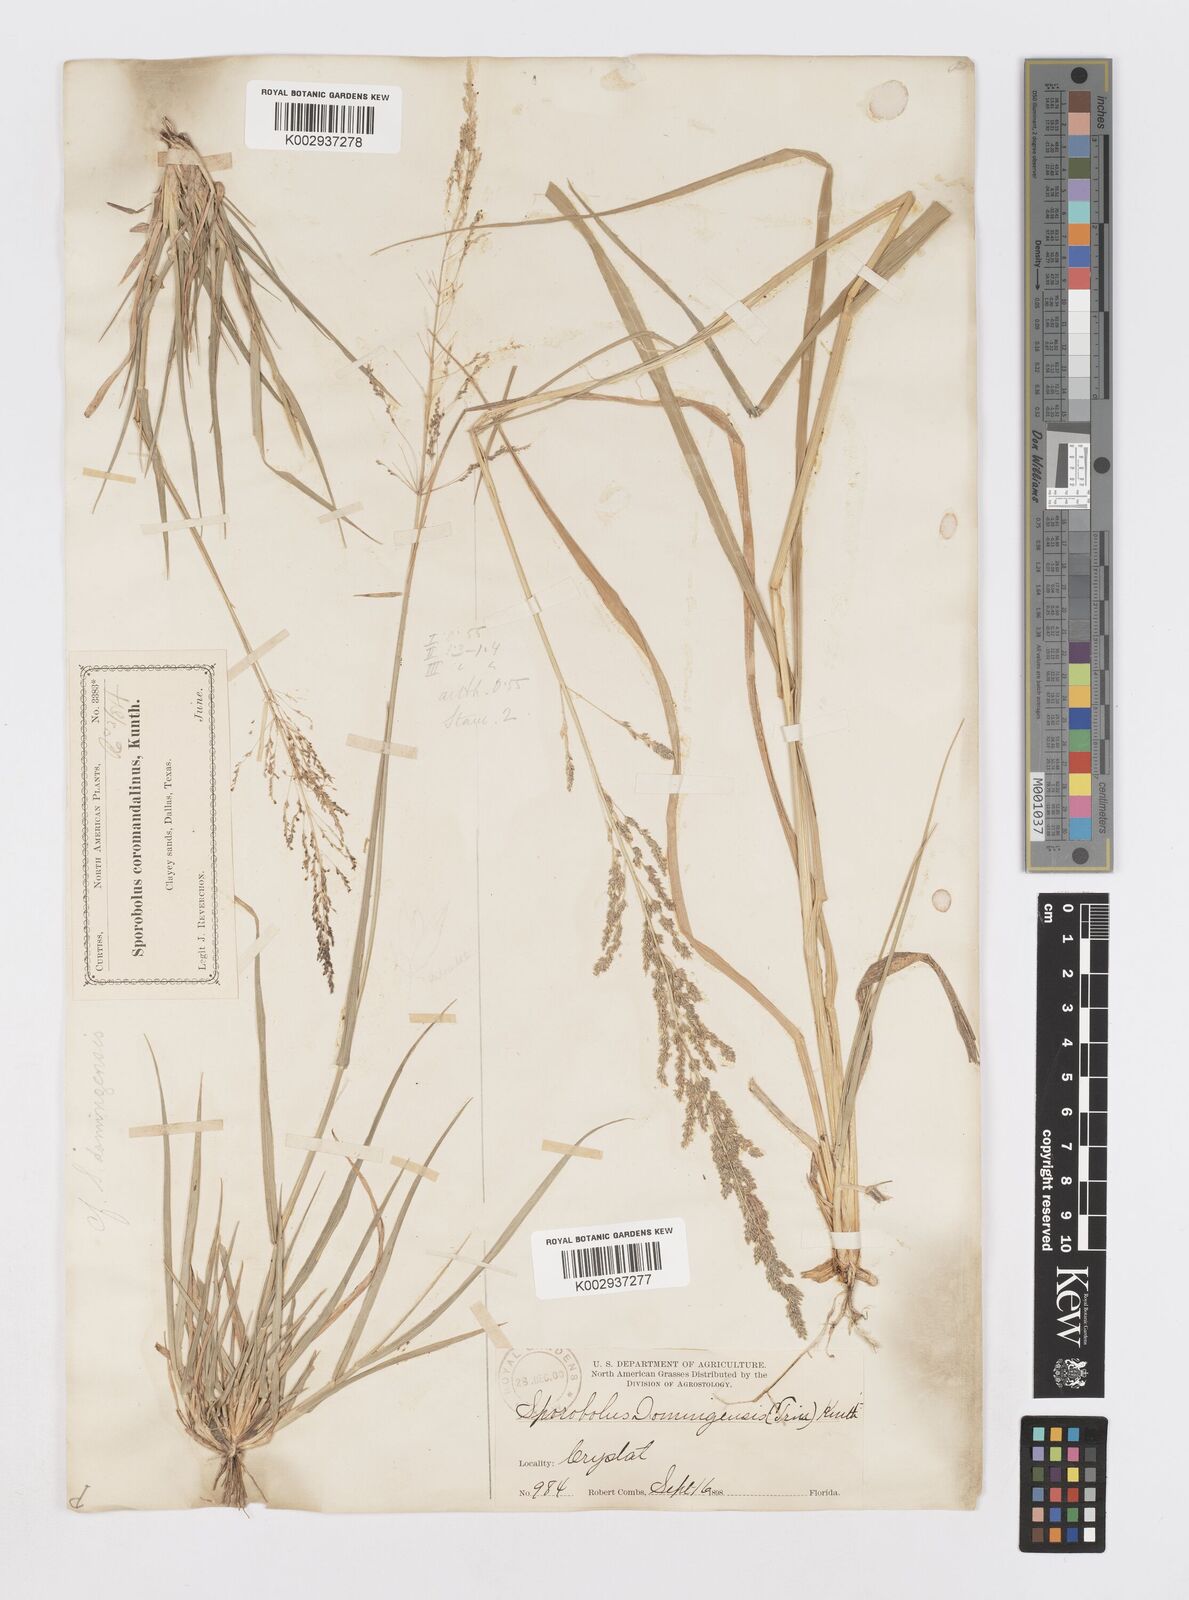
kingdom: Plantae
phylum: Tracheophyta
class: Liliopsida
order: Poales
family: Poaceae
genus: Sporobolus
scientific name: Sporobolus domingensis
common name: Coral dropseed
